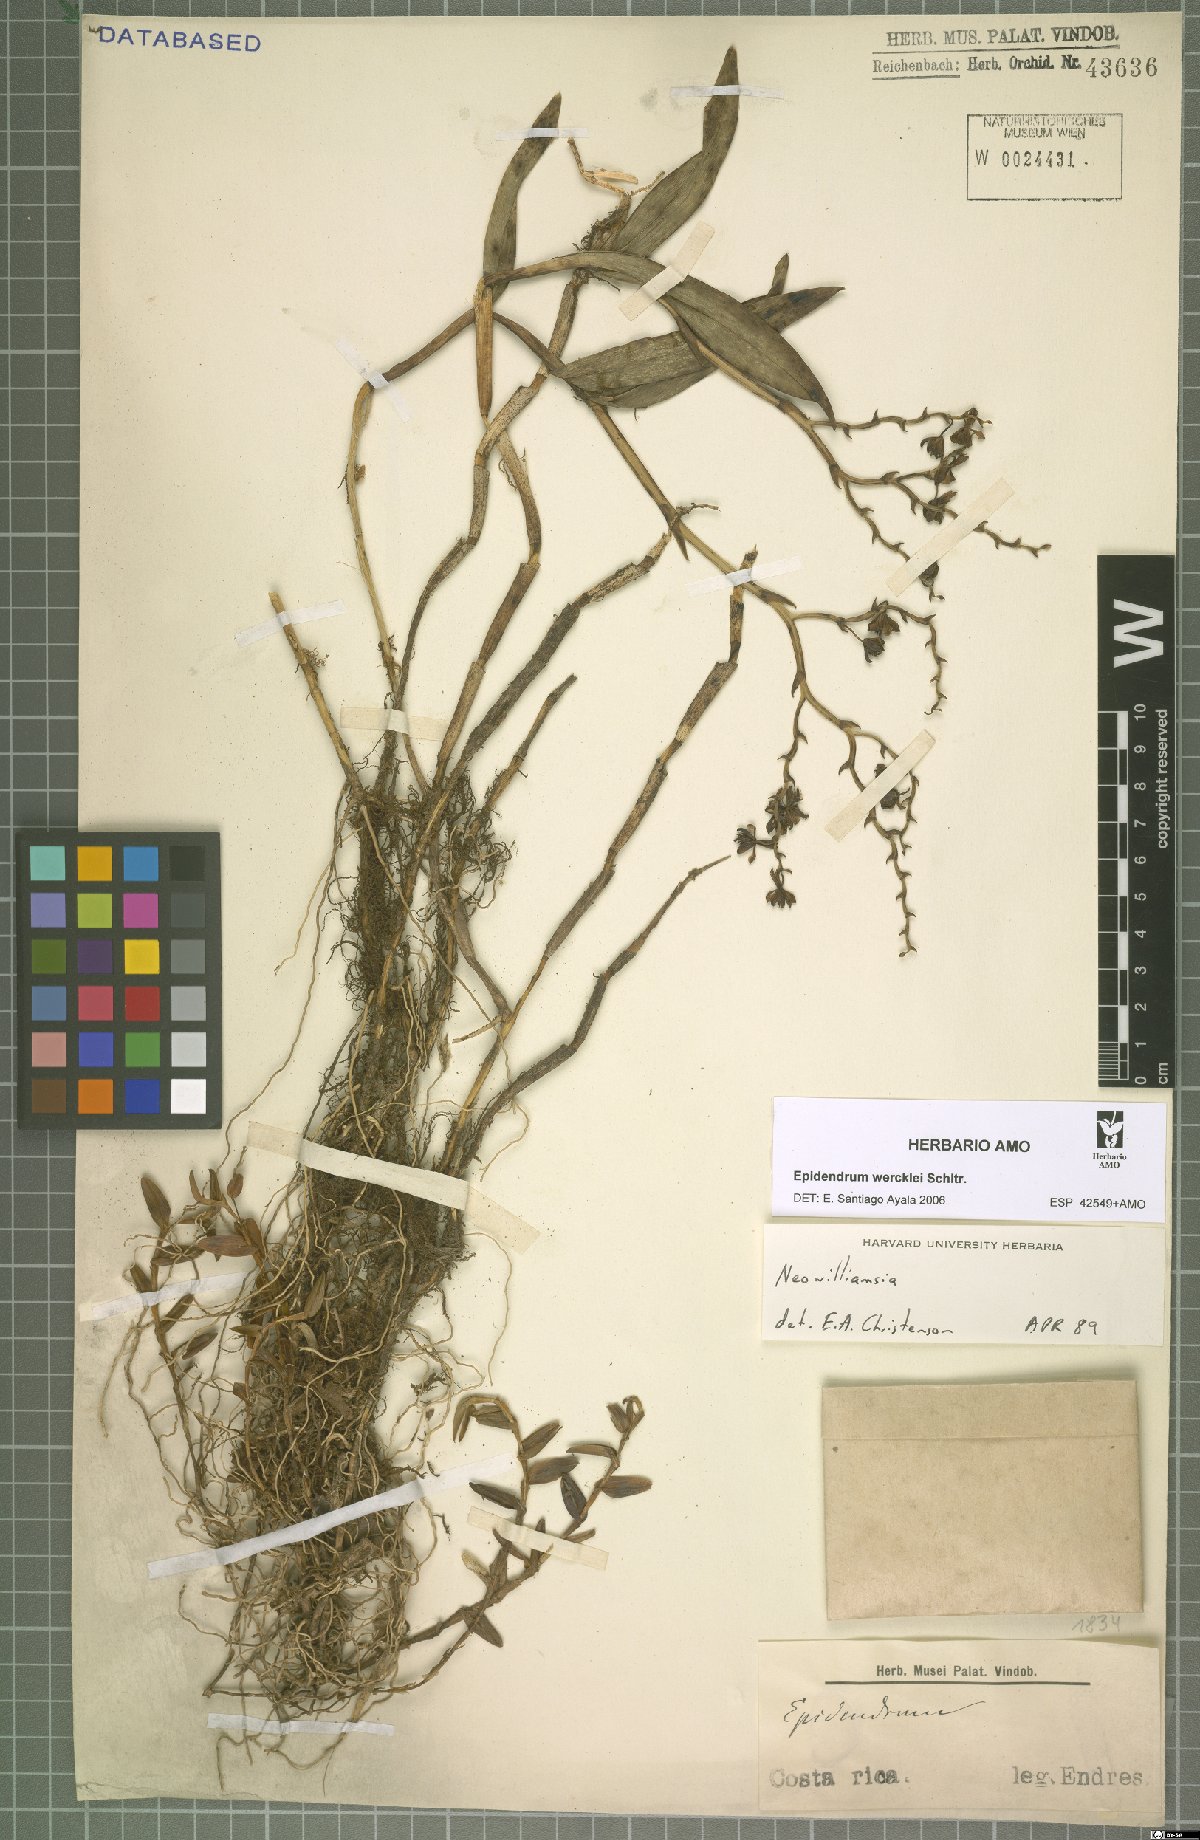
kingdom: Plantae
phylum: Tracheophyta
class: Liliopsida
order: Asparagales
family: Orchidaceae
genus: Epidendrum
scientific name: Epidendrum wercklei
